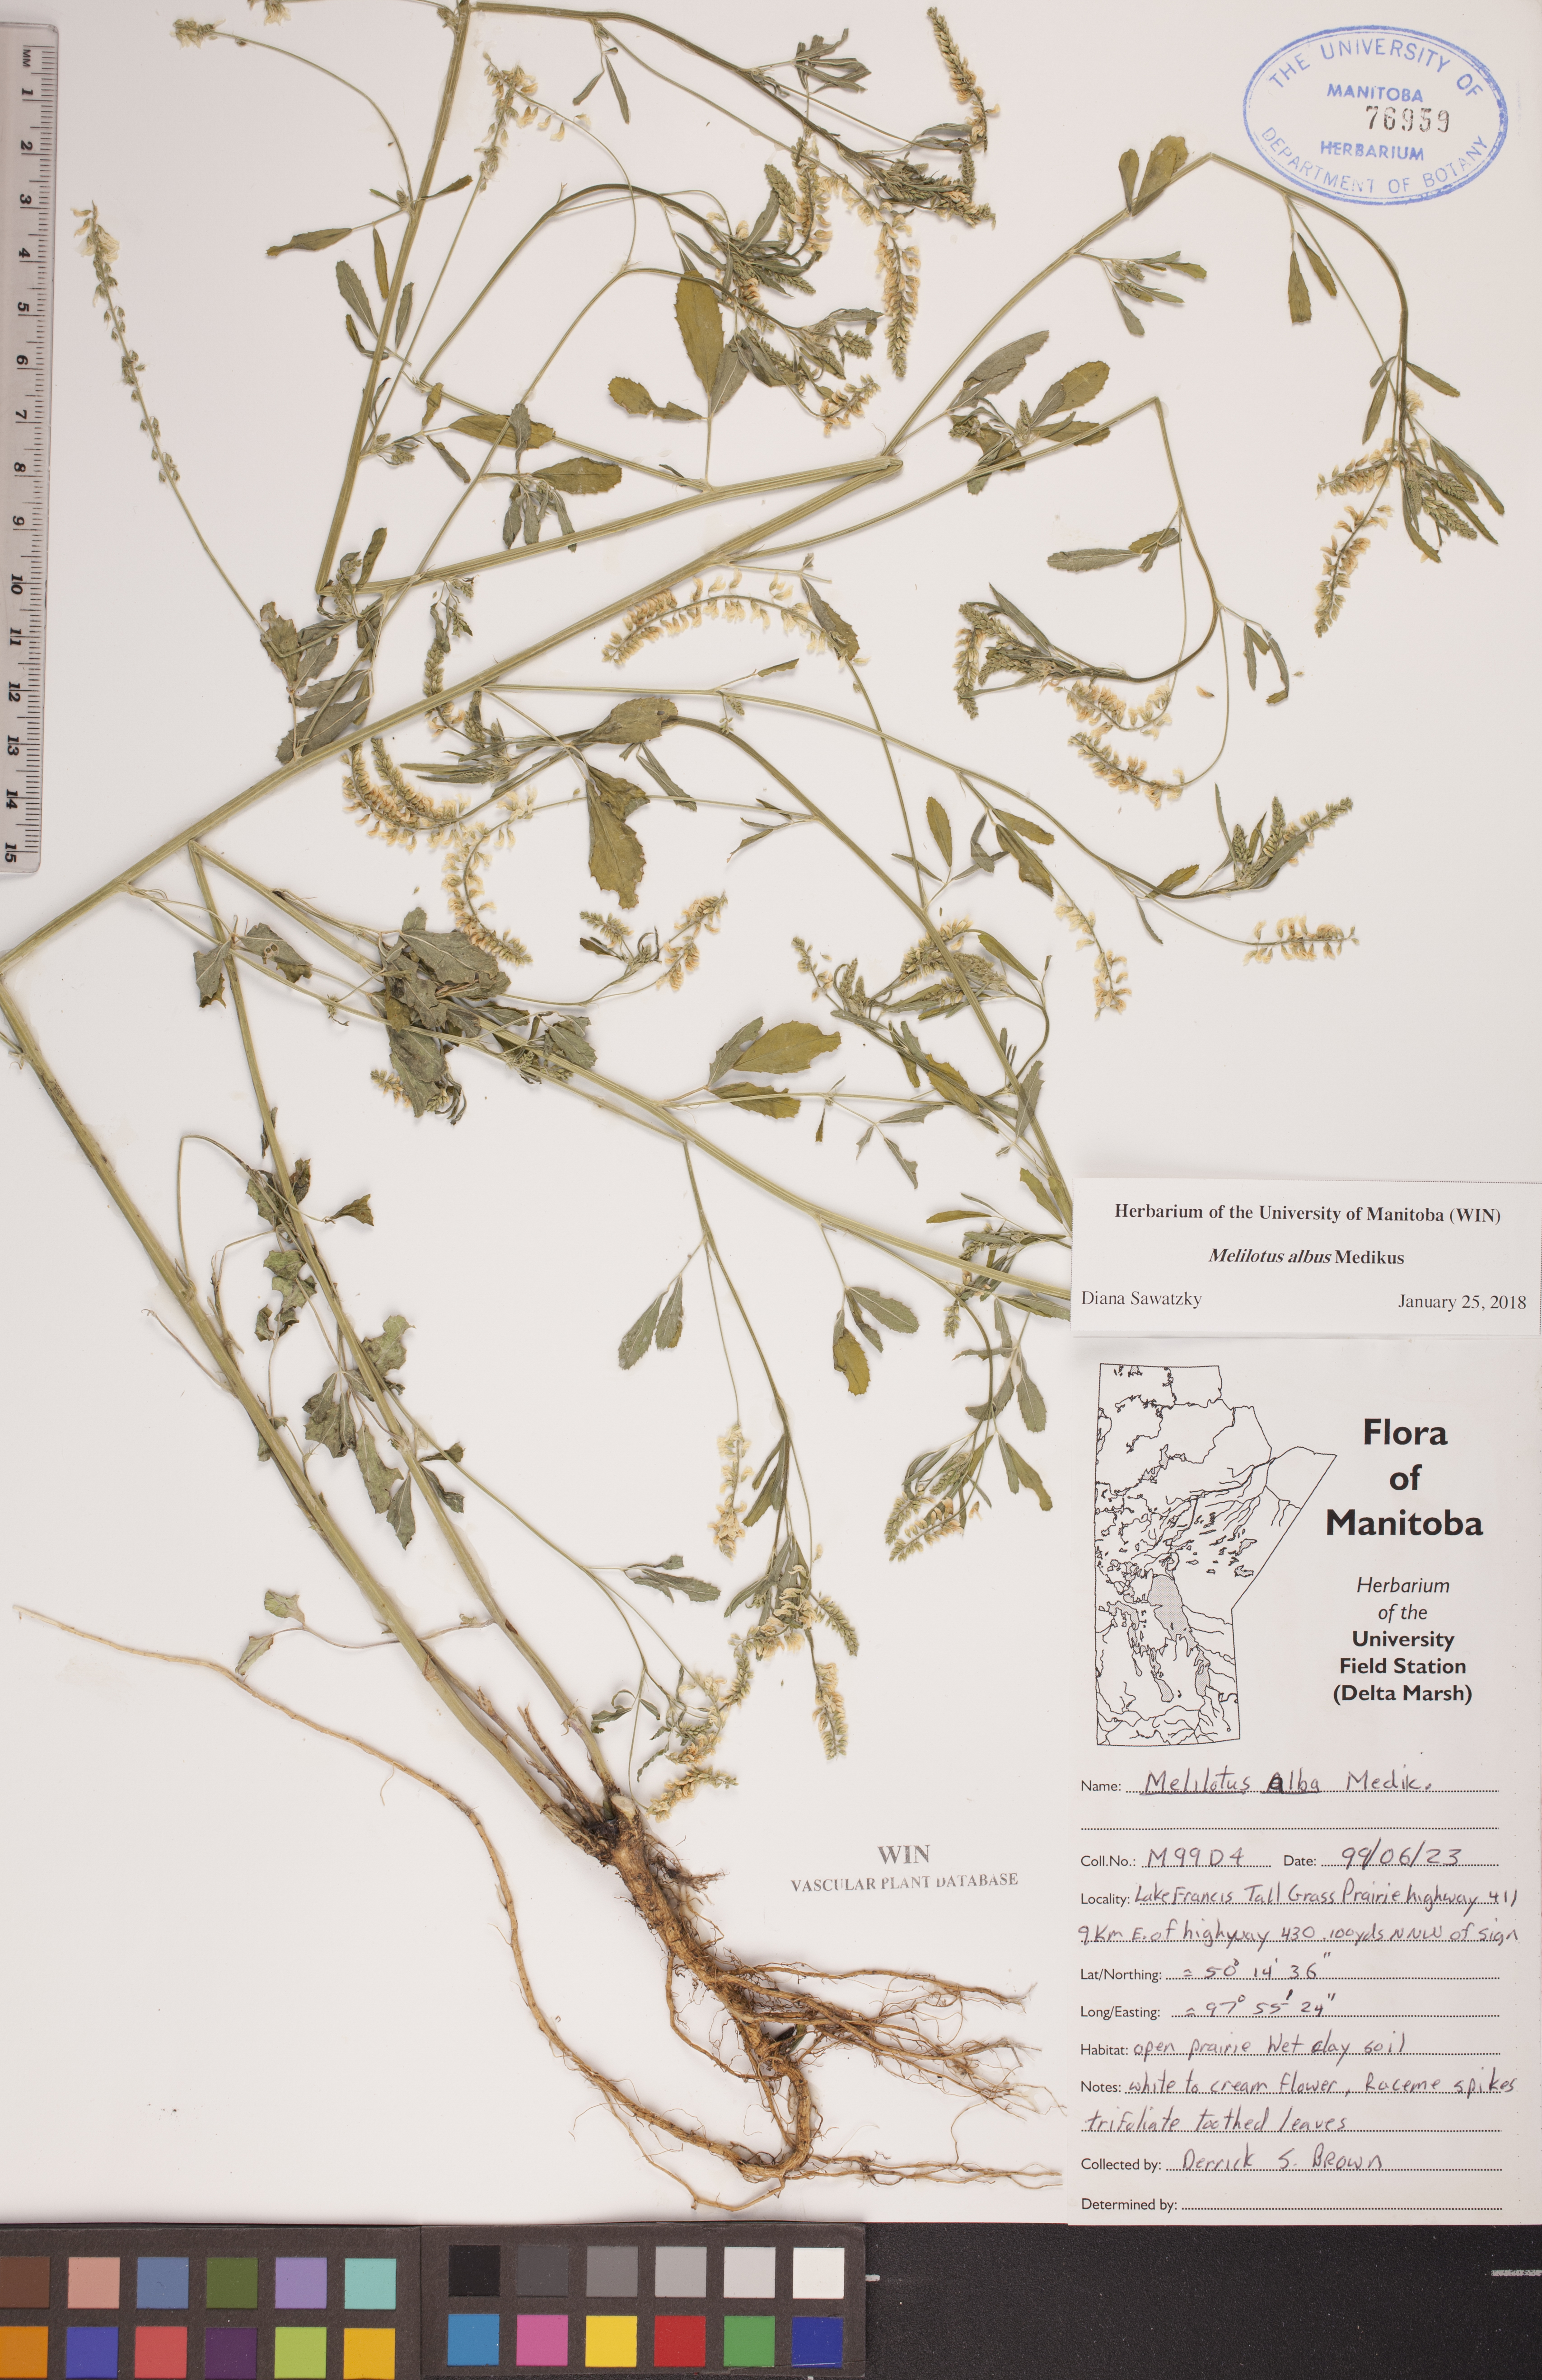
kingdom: Plantae
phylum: Tracheophyta
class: Magnoliopsida
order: Fabales
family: Fabaceae
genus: Melilotus
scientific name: Melilotus albus
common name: White melilot
